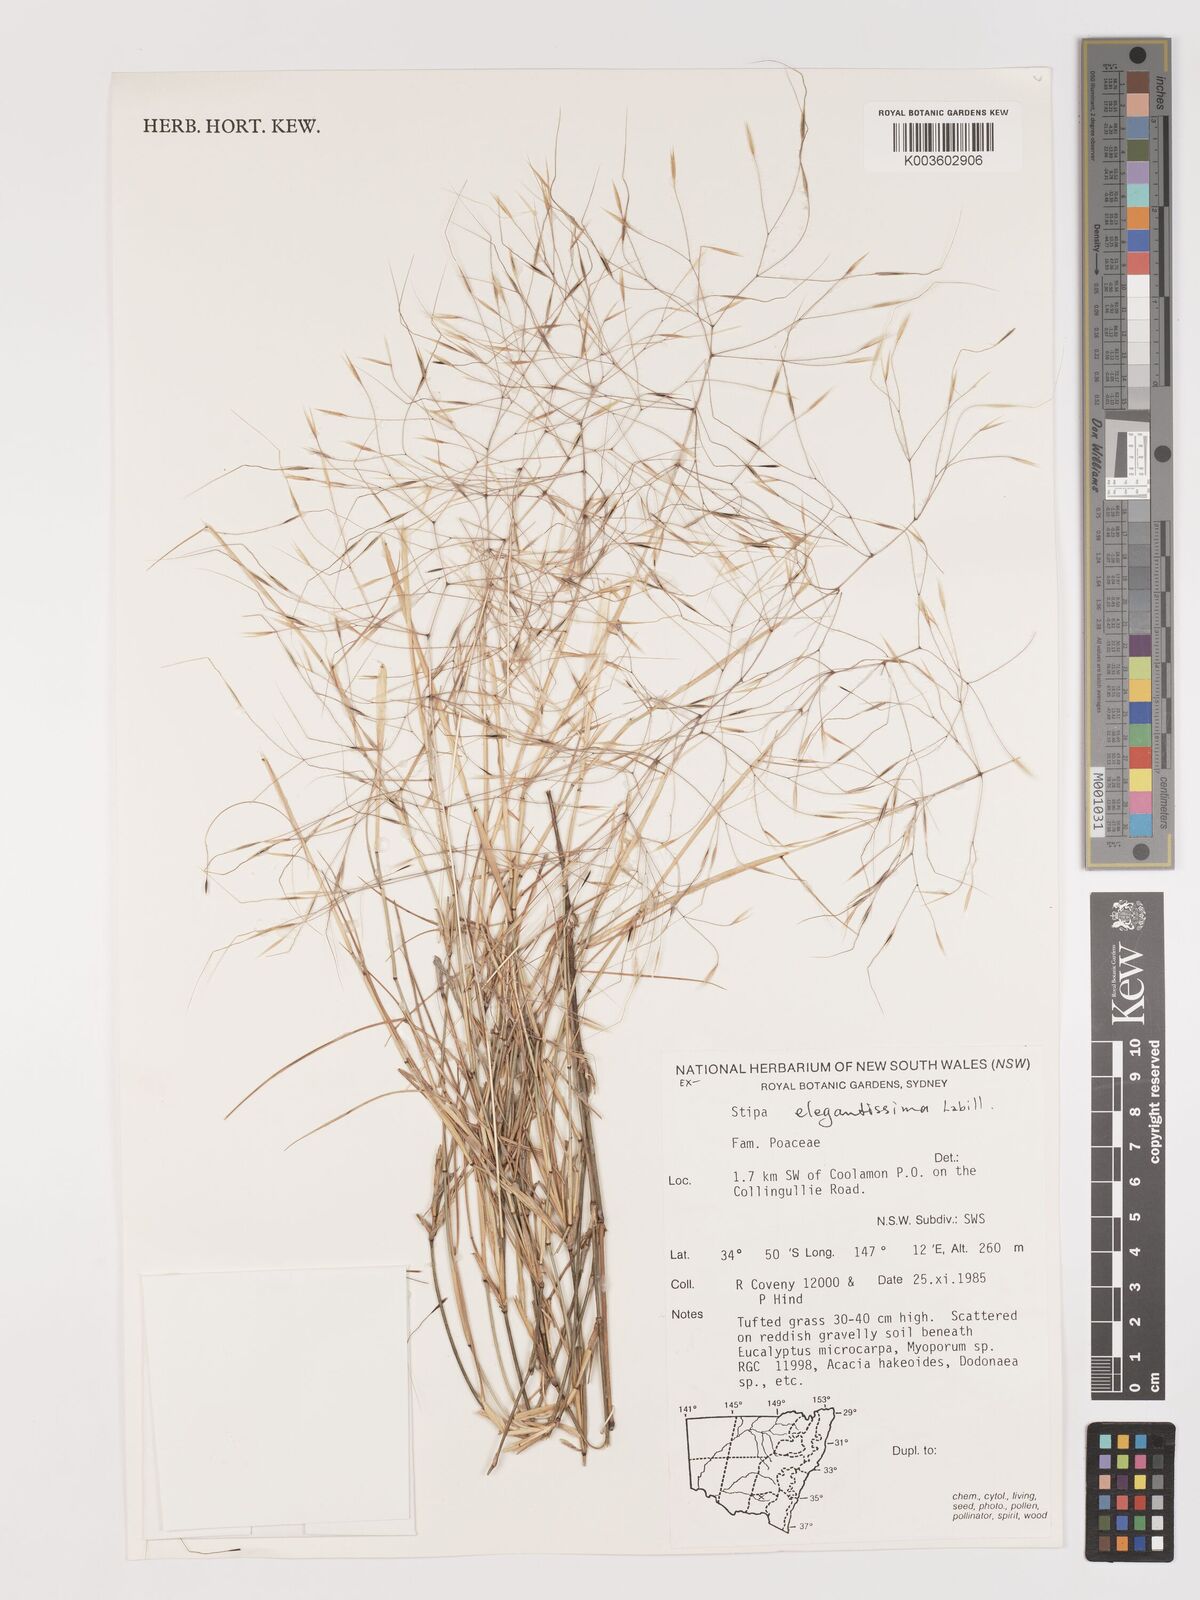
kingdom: Plantae
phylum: Tracheophyta
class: Liliopsida
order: Poales
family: Poaceae
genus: Austrostipa
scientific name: Austrostipa elegantissima
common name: Feather spear grass
